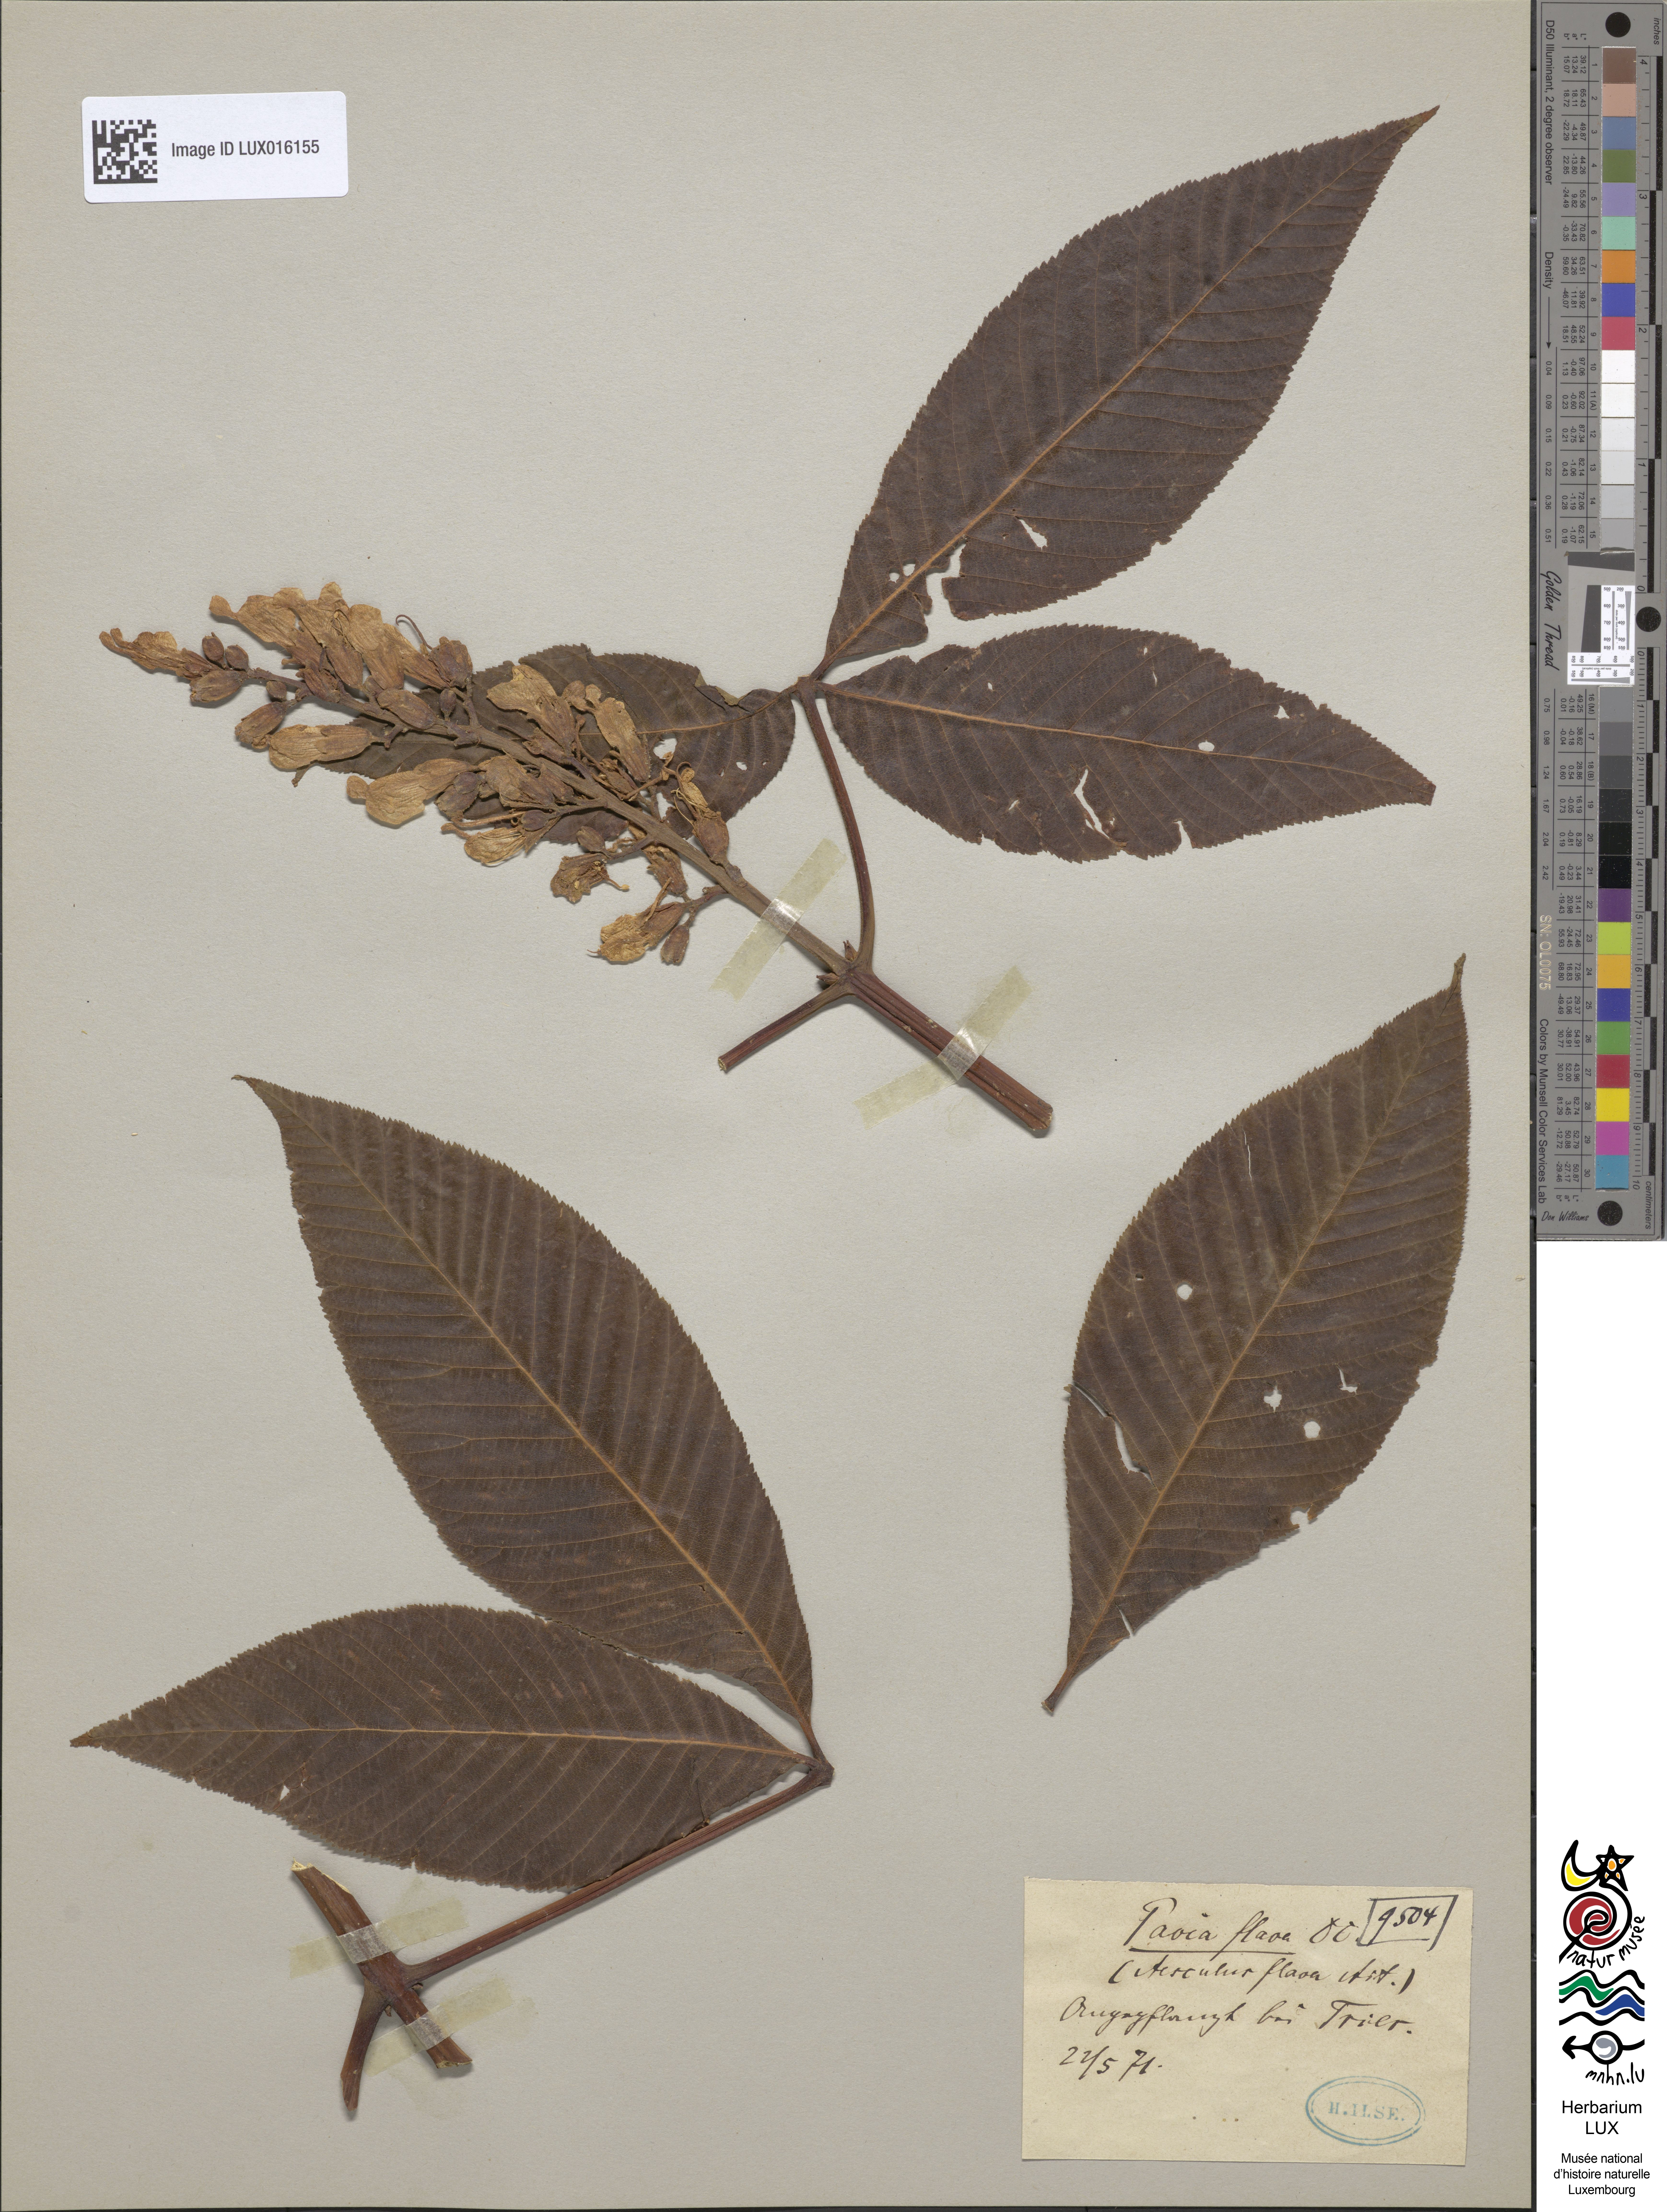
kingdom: Plantae
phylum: Tracheophyta
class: Magnoliopsida
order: Sapindales
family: Sapindaceae
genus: Aesculus
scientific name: Aesculus flava
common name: Yellow buckeye
